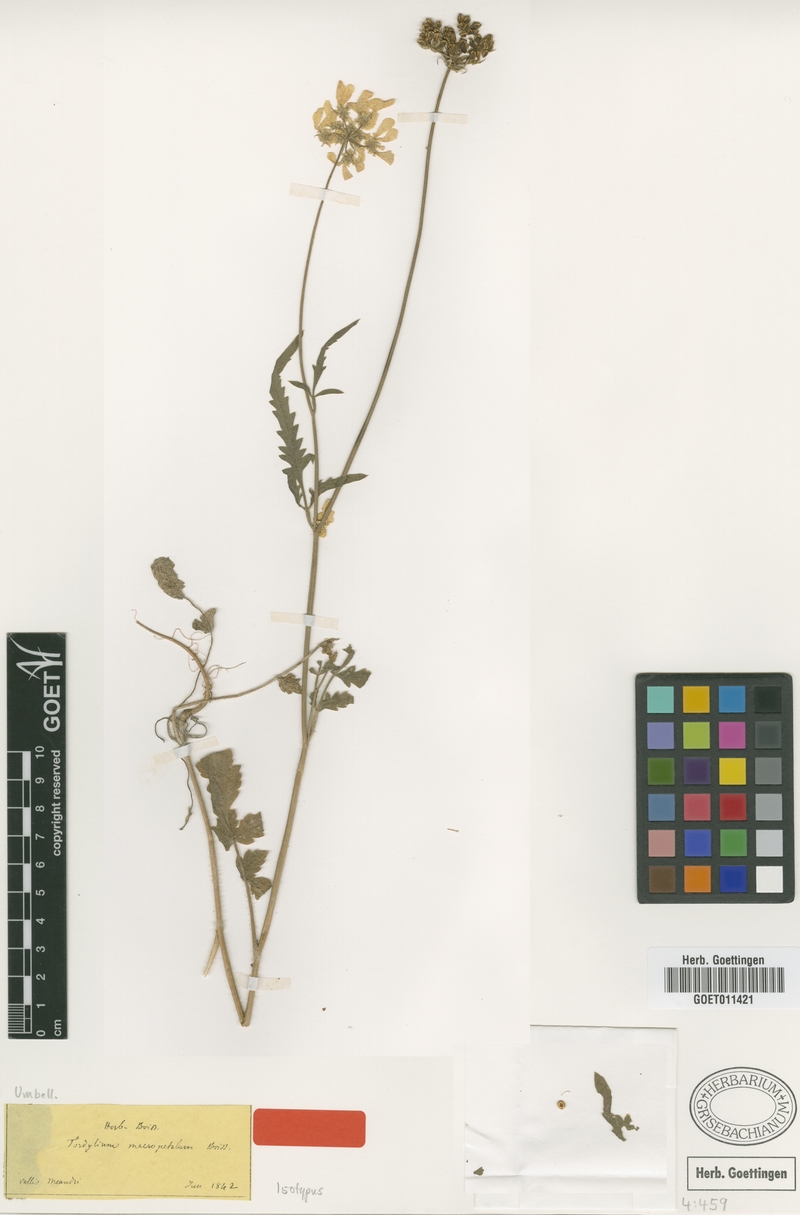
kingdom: Plantae
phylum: Tracheophyta
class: Magnoliopsida
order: Apiales
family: Apiaceae
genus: Tordylium
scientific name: Tordylium macropetalum
